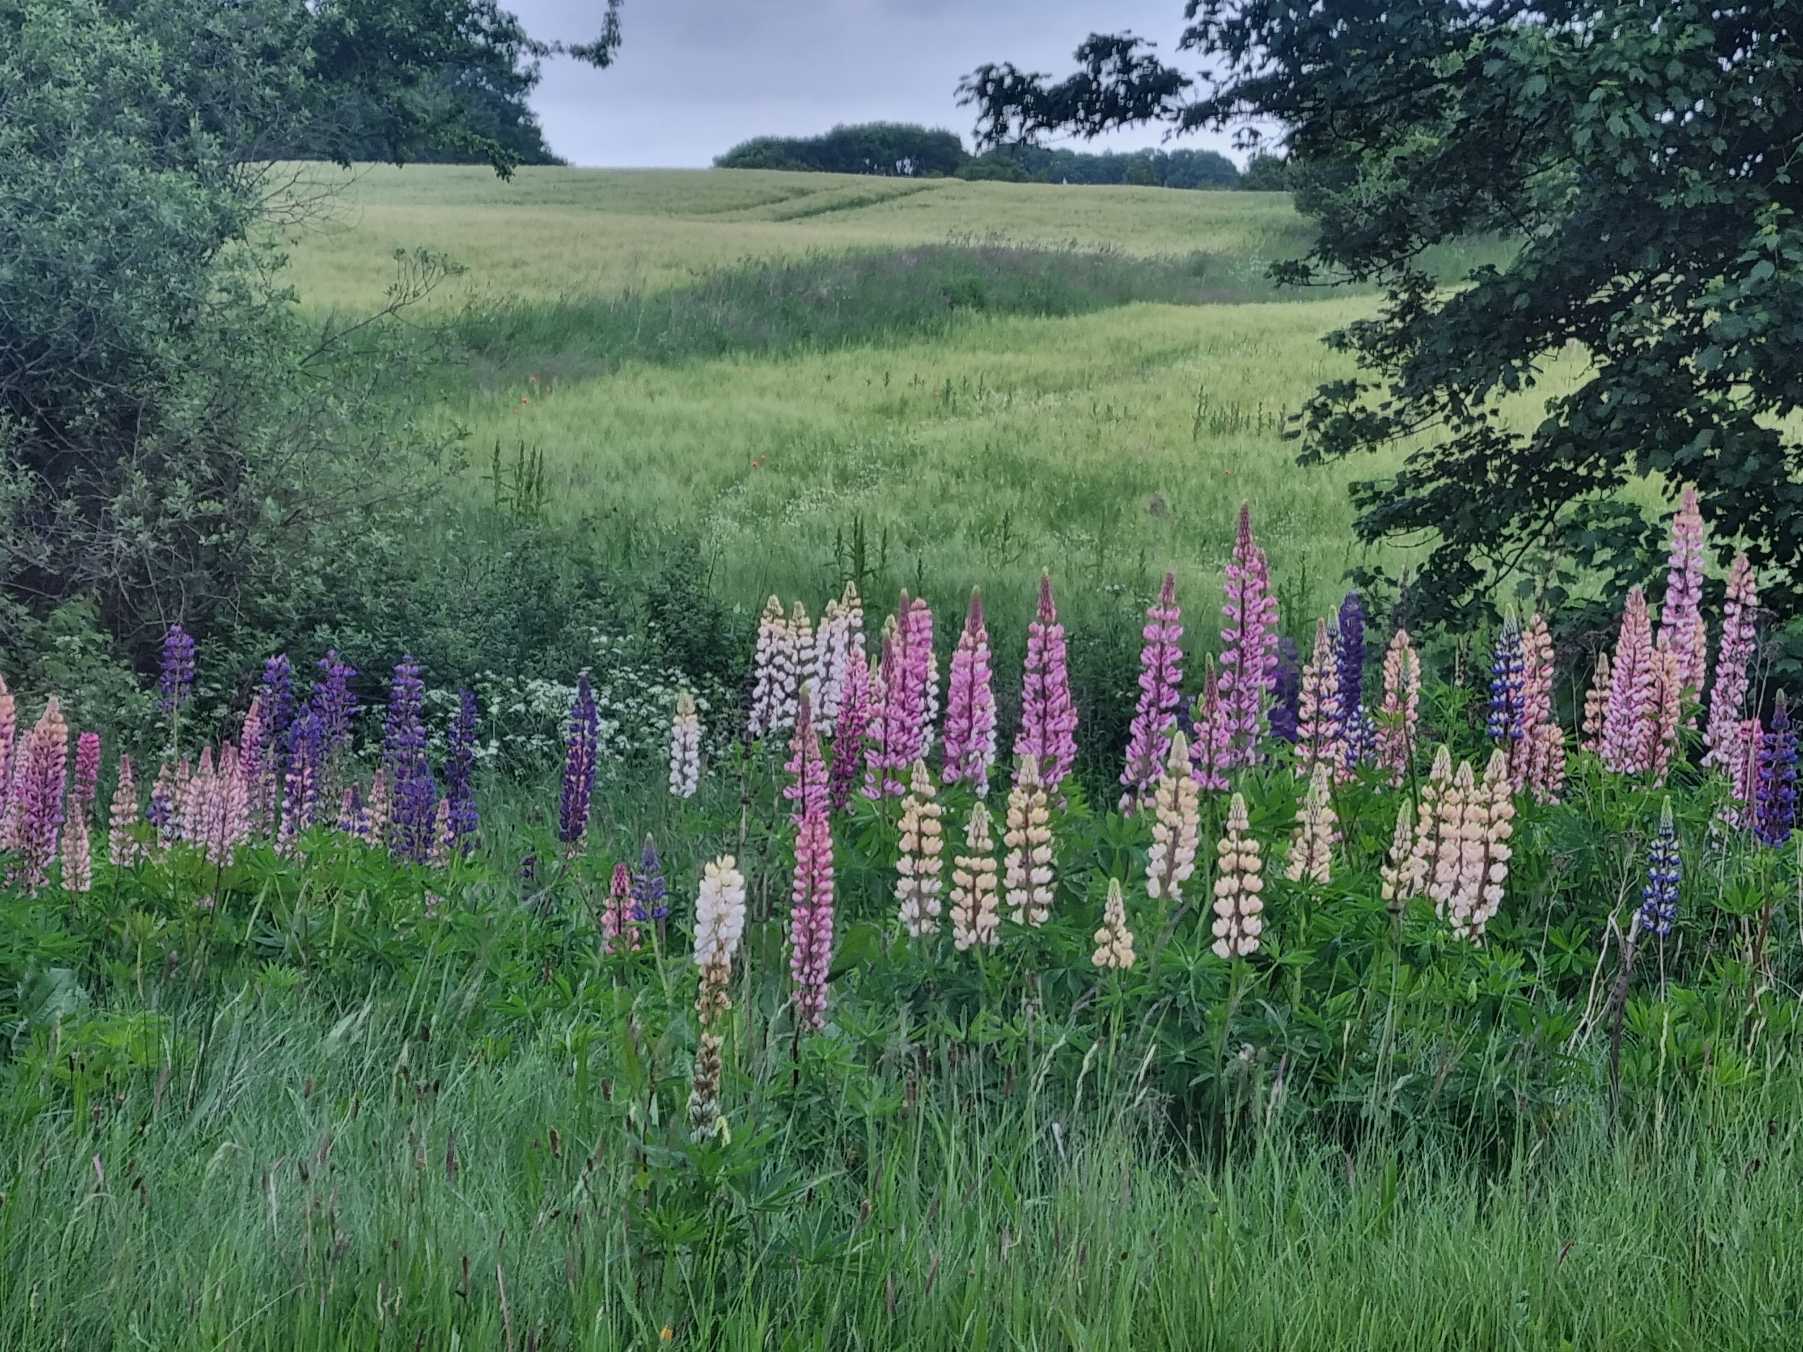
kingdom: Plantae
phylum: Tracheophyta
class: Magnoliopsida
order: Fabales
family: Fabaceae
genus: Lupinus
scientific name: Lupinus polyphyllus
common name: Mangebladet lupin
